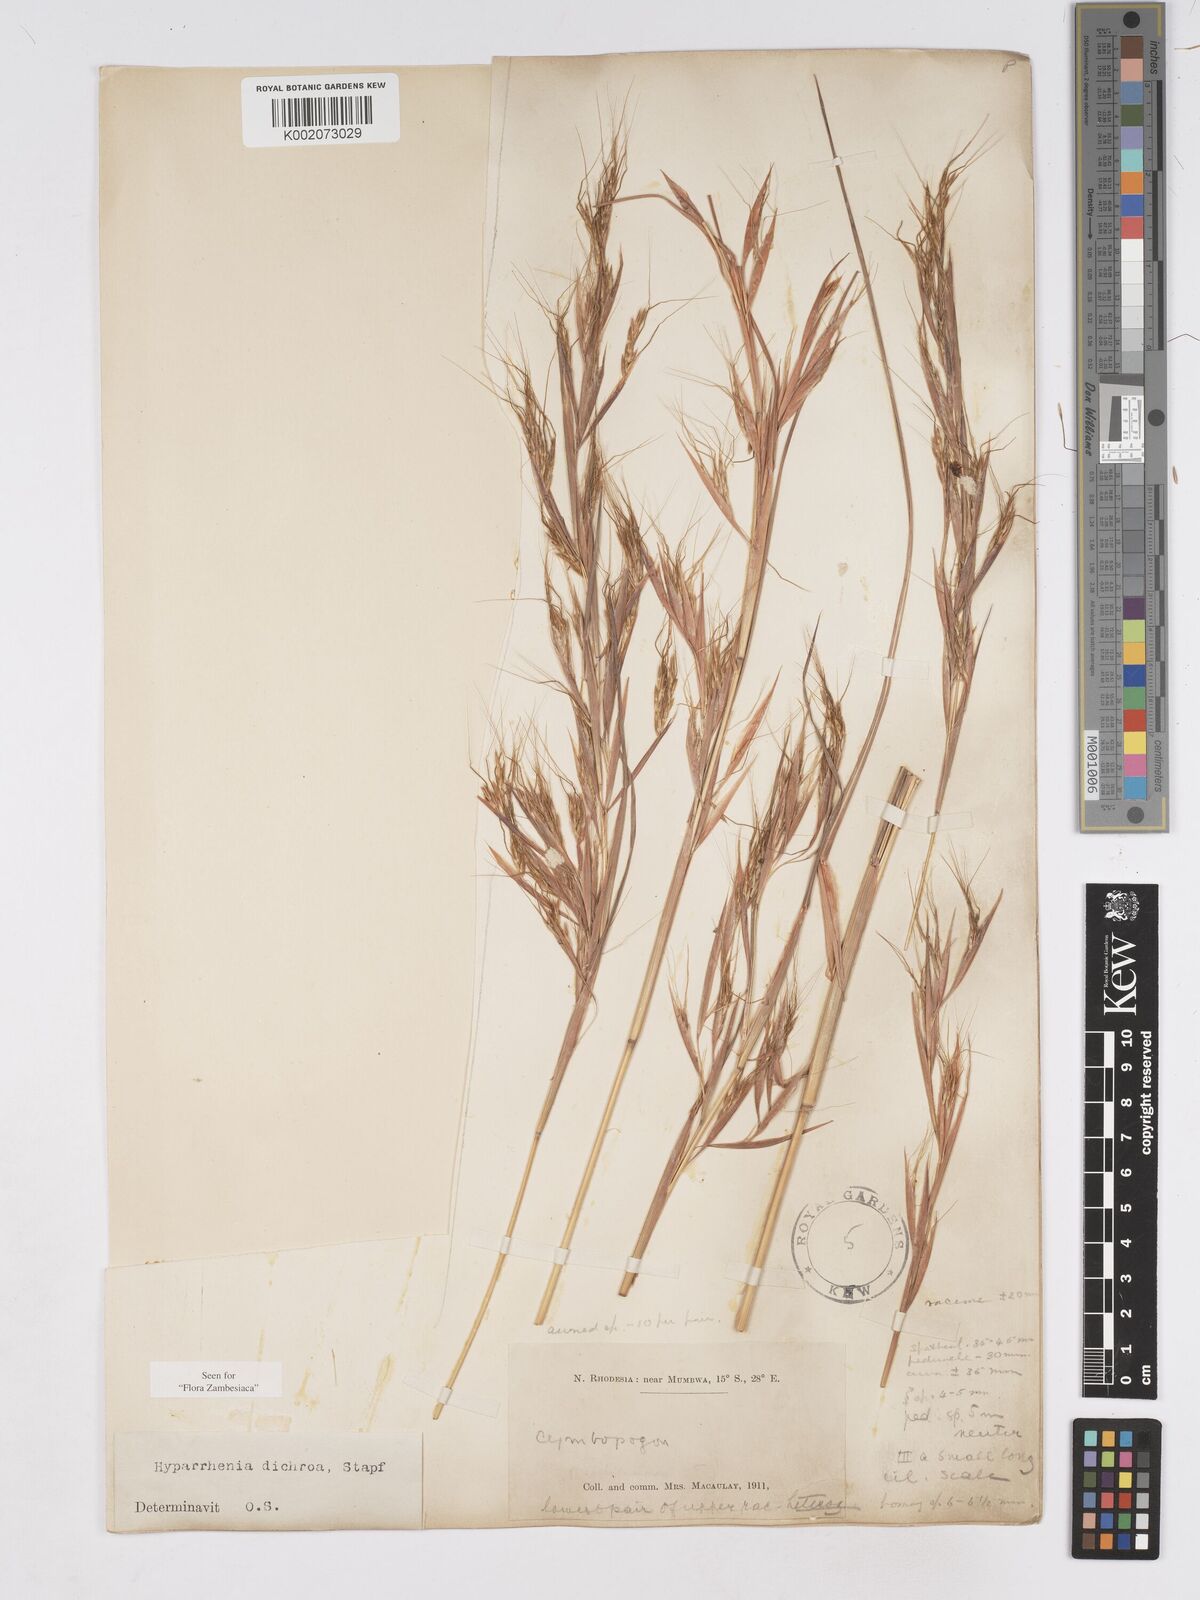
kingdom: Plantae
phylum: Tracheophyta
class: Liliopsida
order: Poales
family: Poaceae
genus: Hyparrhenia
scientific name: Hyparrhenia dichroa
